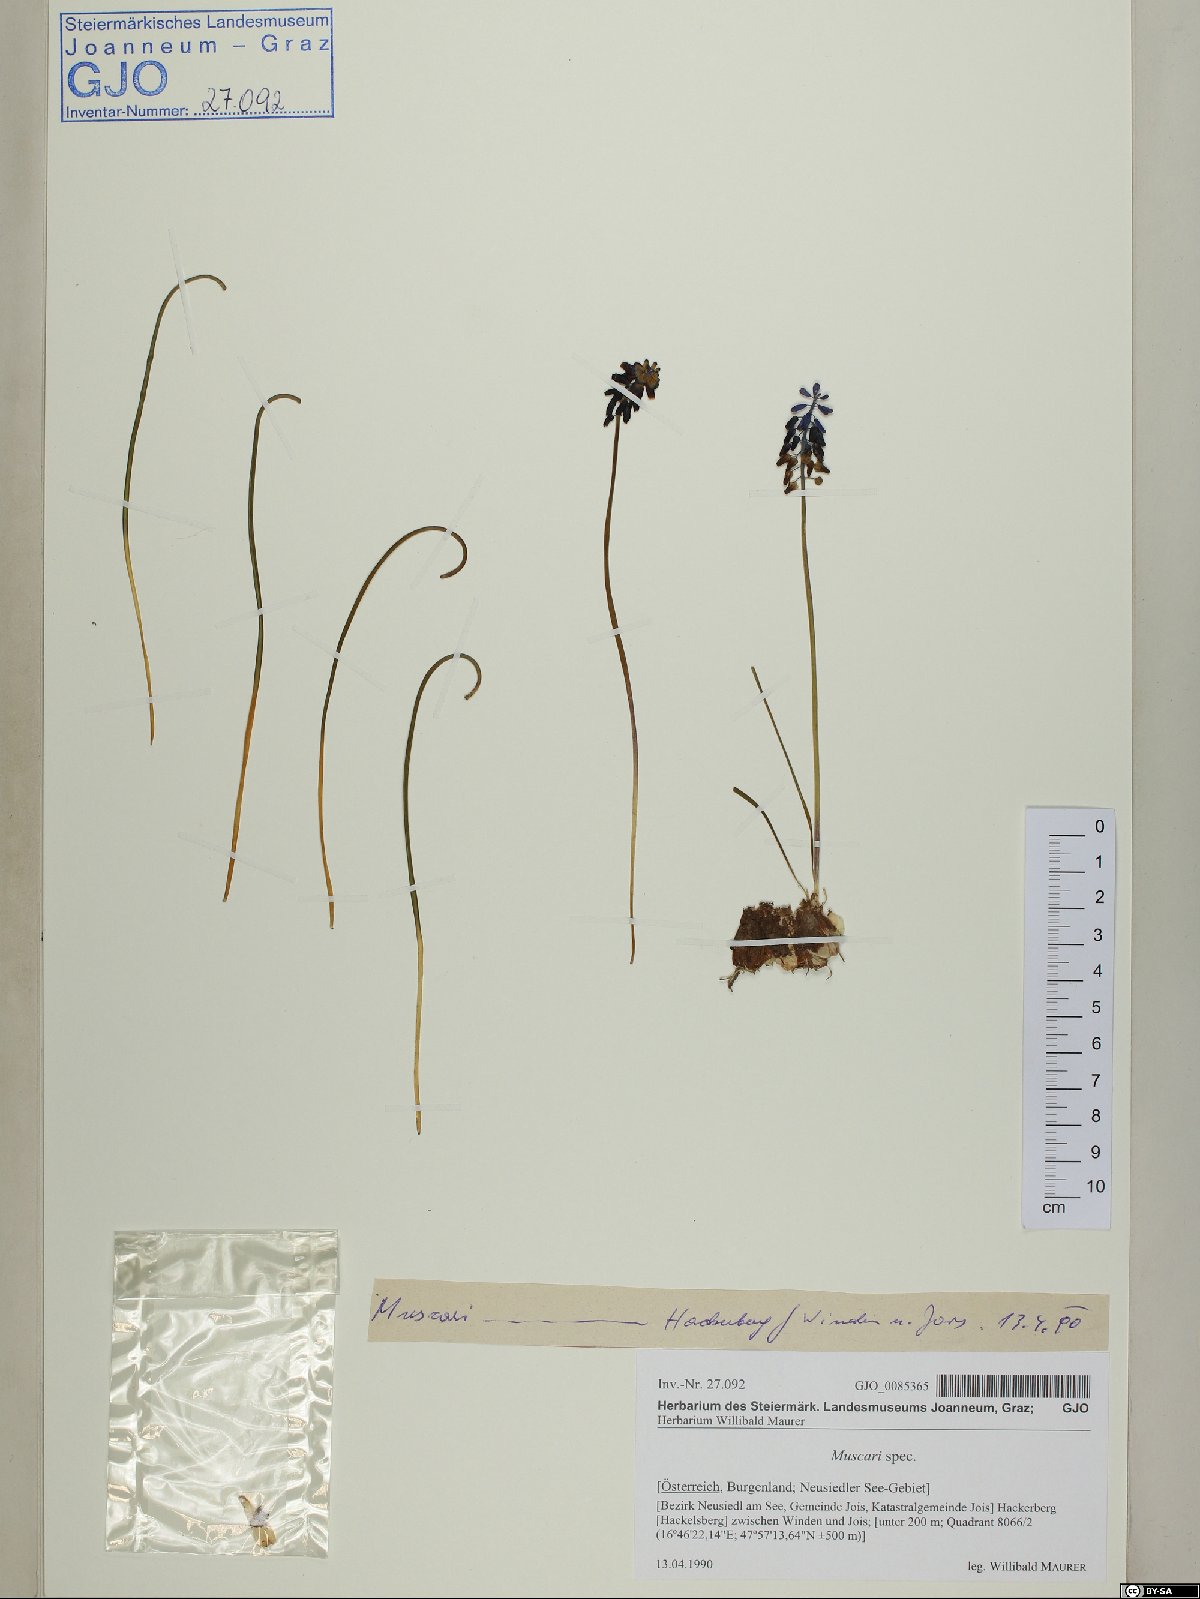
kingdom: Plantae
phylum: Tracheophyta
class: Liliopsida
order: Asparagales
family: Asparagaceae
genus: Muscari
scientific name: Muscari
